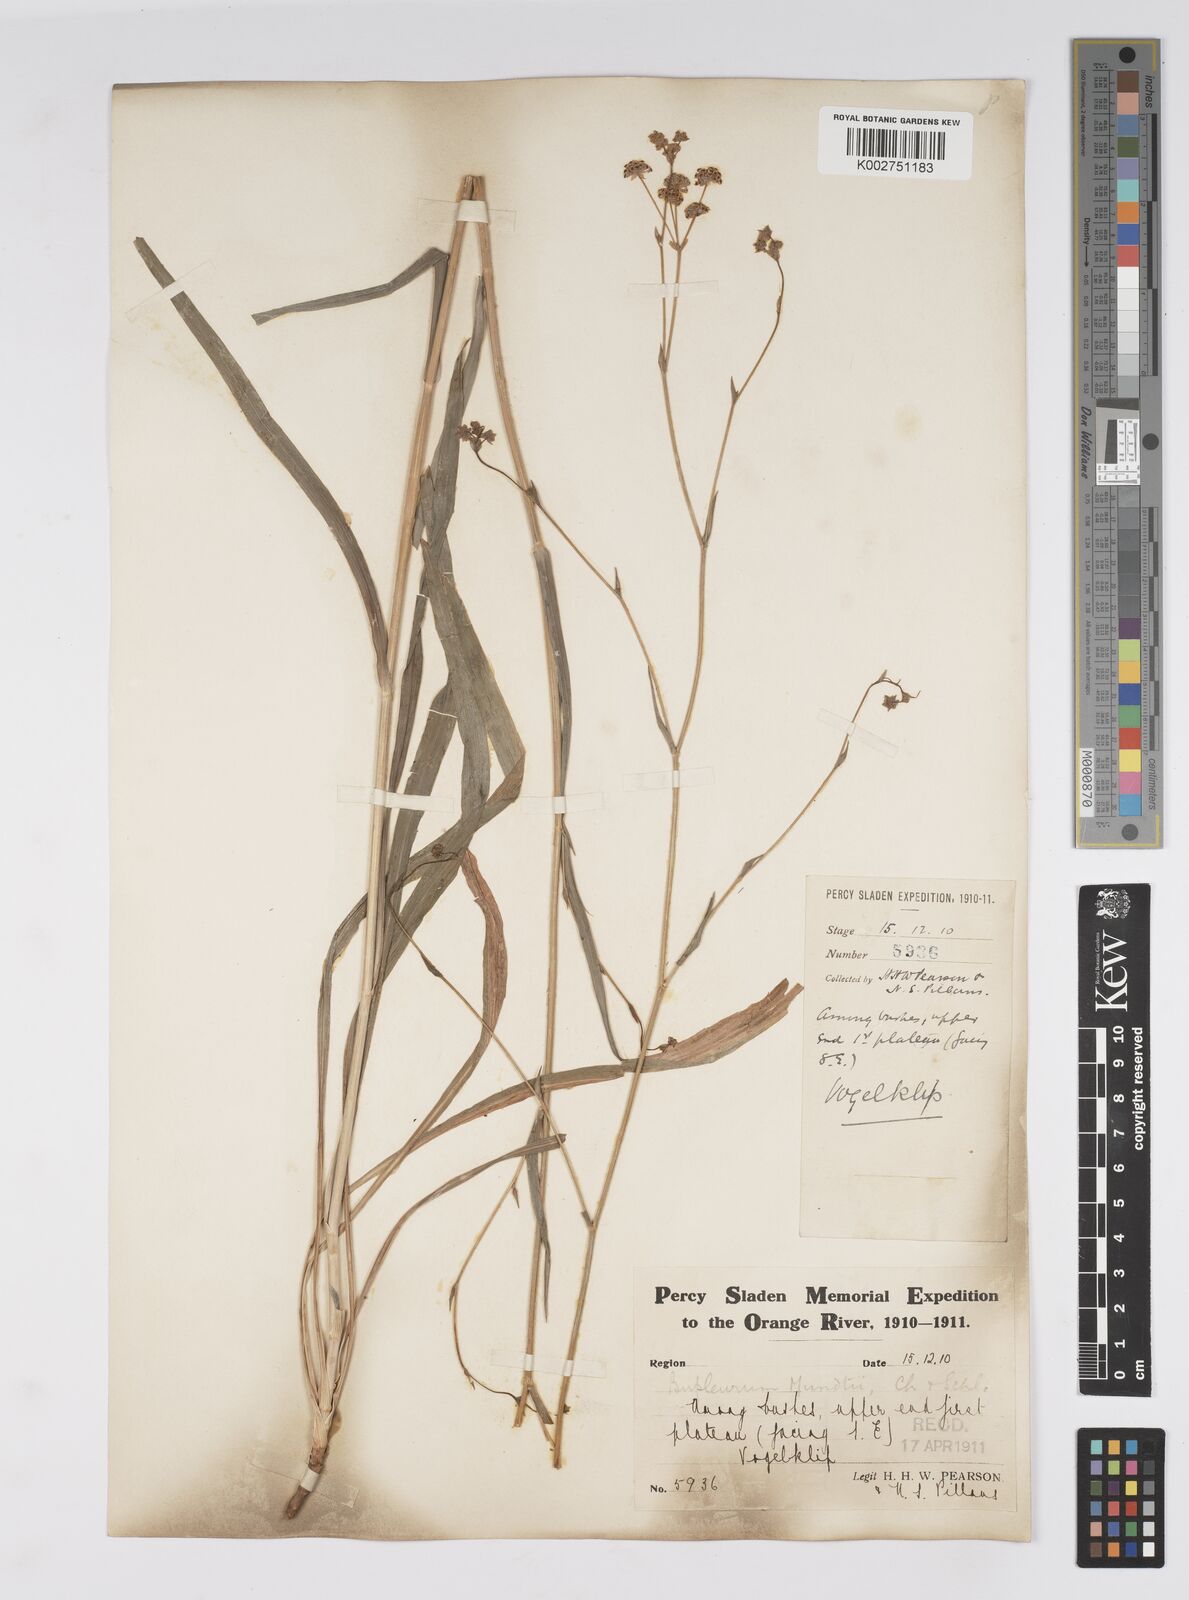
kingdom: Plantae
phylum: Tracheophyta
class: Magnoliopsida
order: Apiales
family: Apiaceae
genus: Bupleurum
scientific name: Bupleurum mundii
